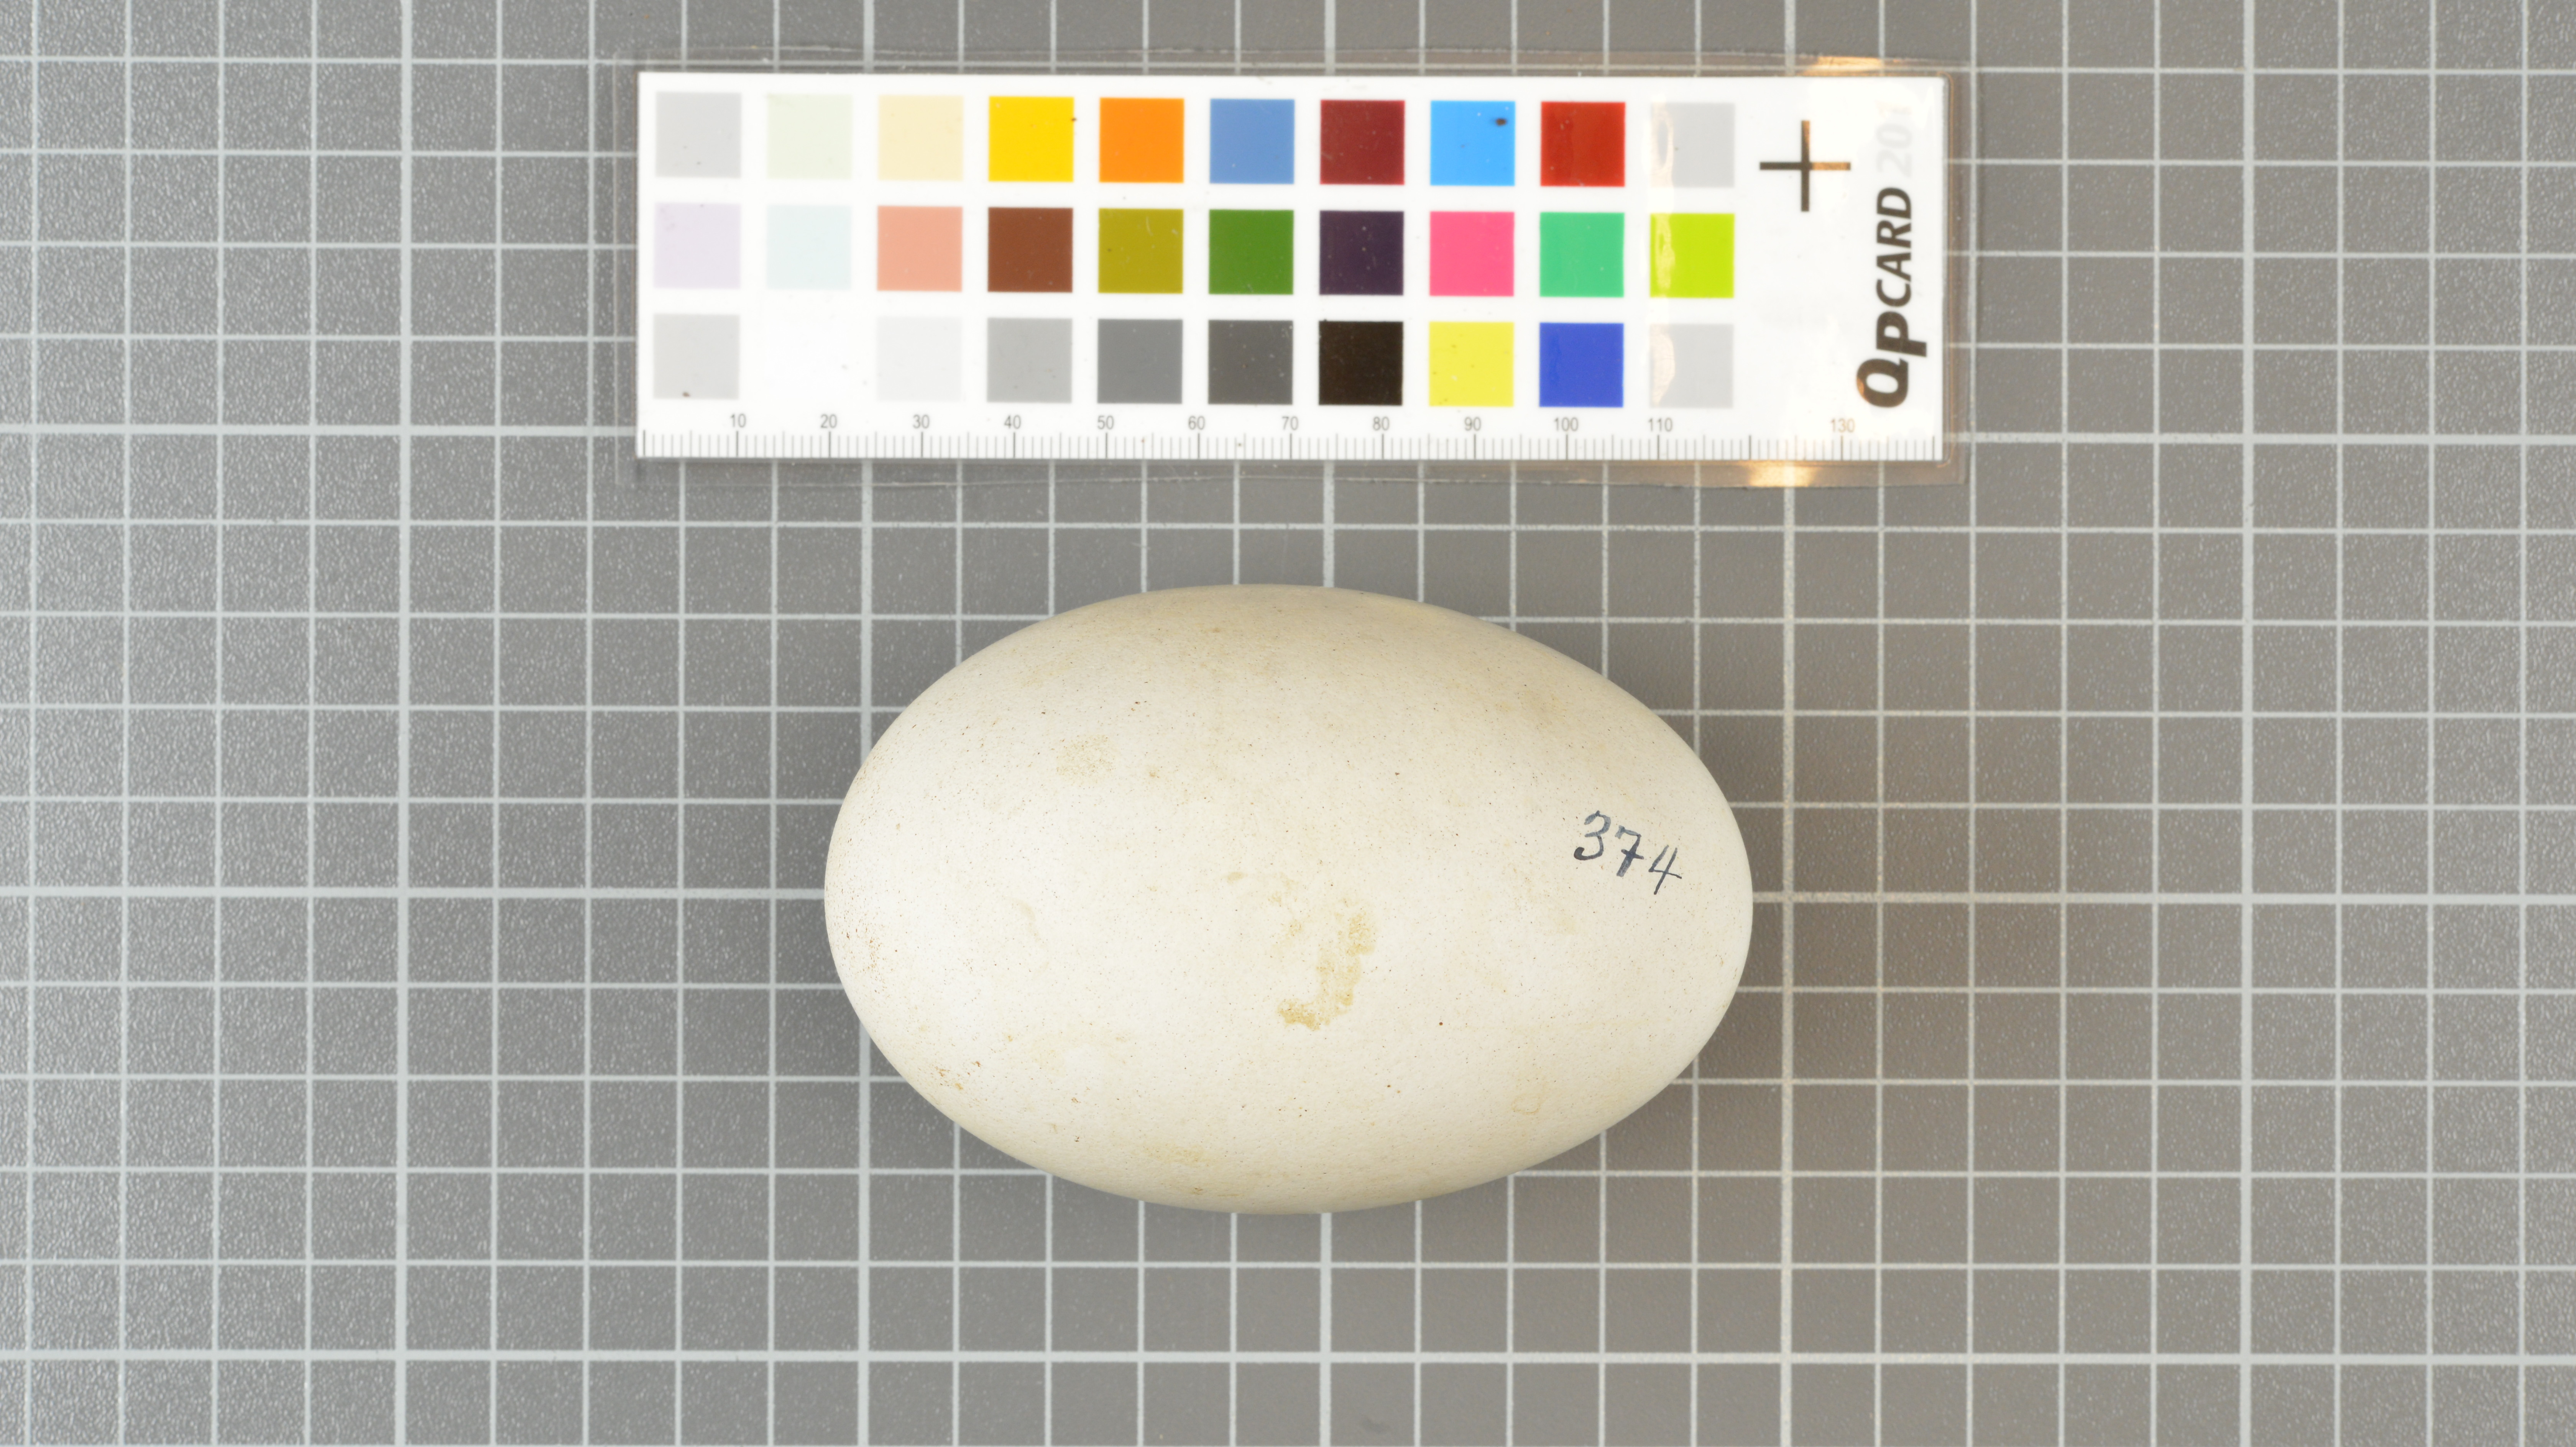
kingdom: Animalia
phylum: Chordata
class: Aves
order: Procellariiformes
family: Diomedeidae
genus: Thalassarche
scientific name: Thalassarche chlororhynchos
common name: Atlantic yellow-nosed albatross
